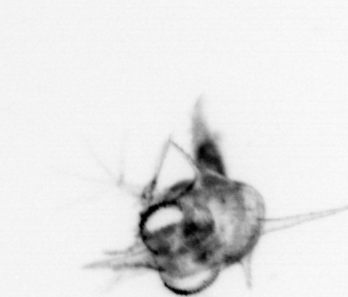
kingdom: Animalia
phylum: Arthropoda
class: Malacostraca
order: Decapoda
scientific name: Decapoda
